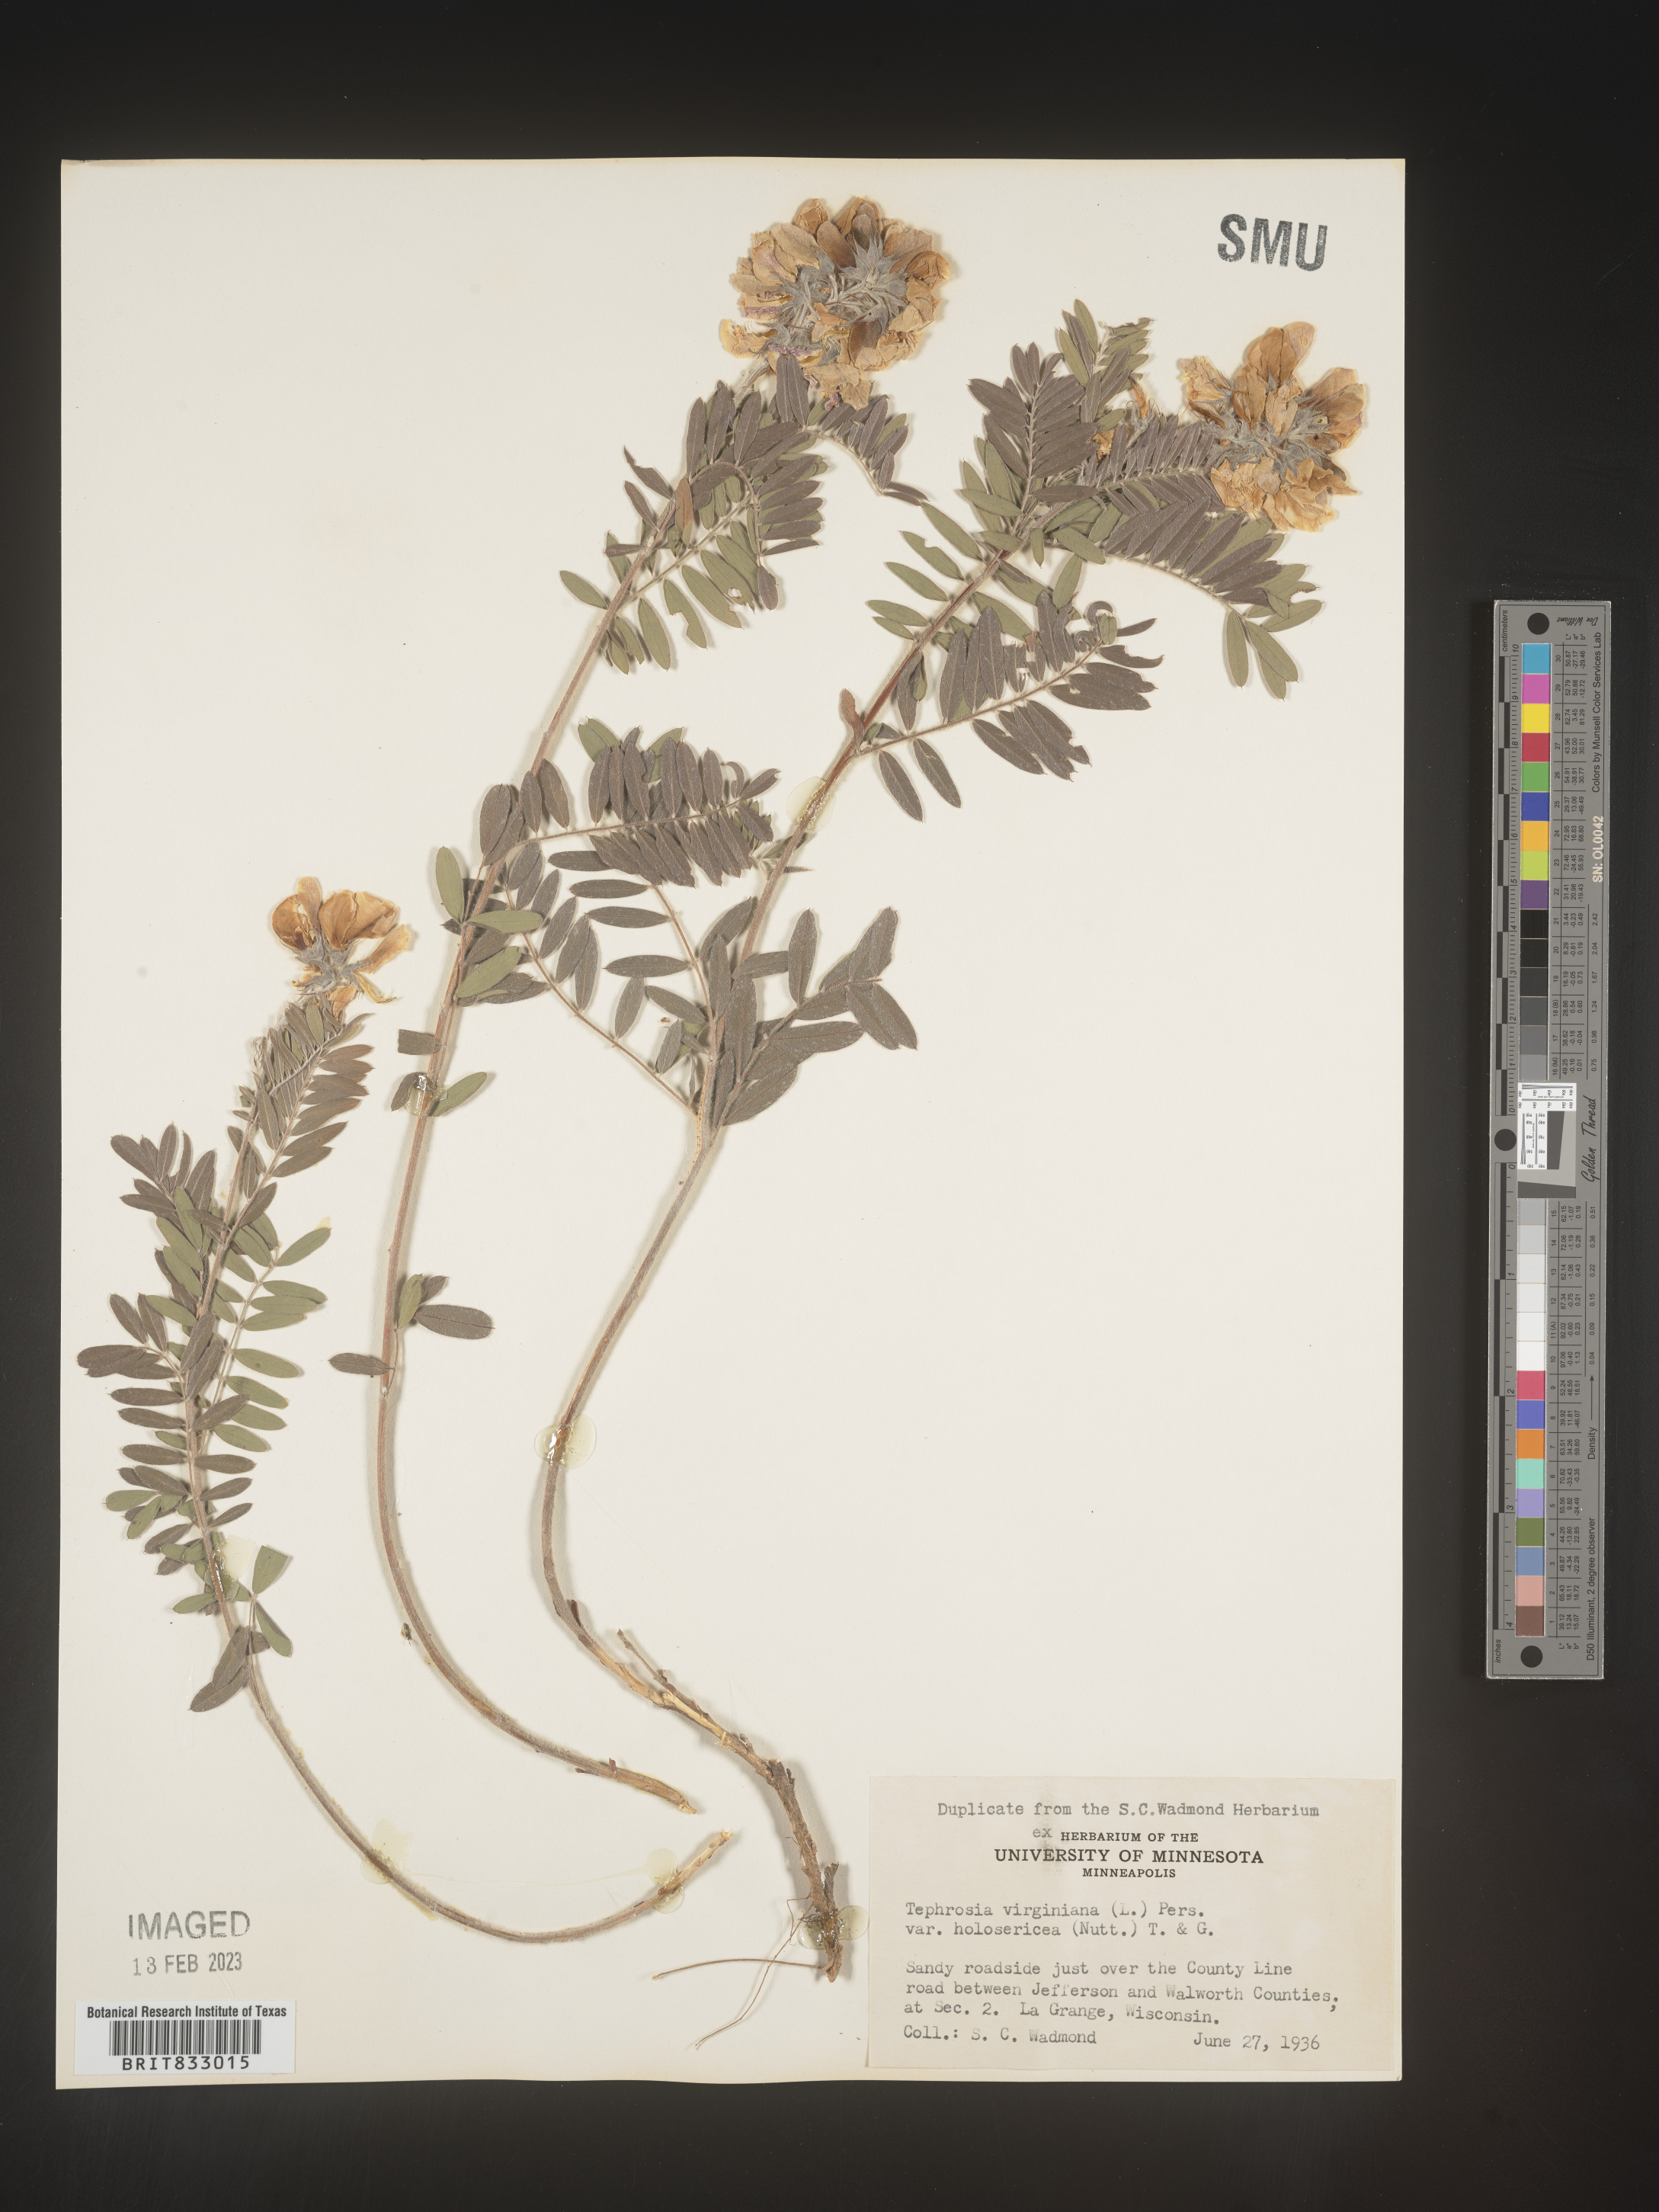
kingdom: Plantae
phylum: Tracheophyta
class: Magnoliopsida
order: Fabales
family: Fabaceae
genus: Tephrosia
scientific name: Tephrosia virginiana
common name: Rabbit-pea
